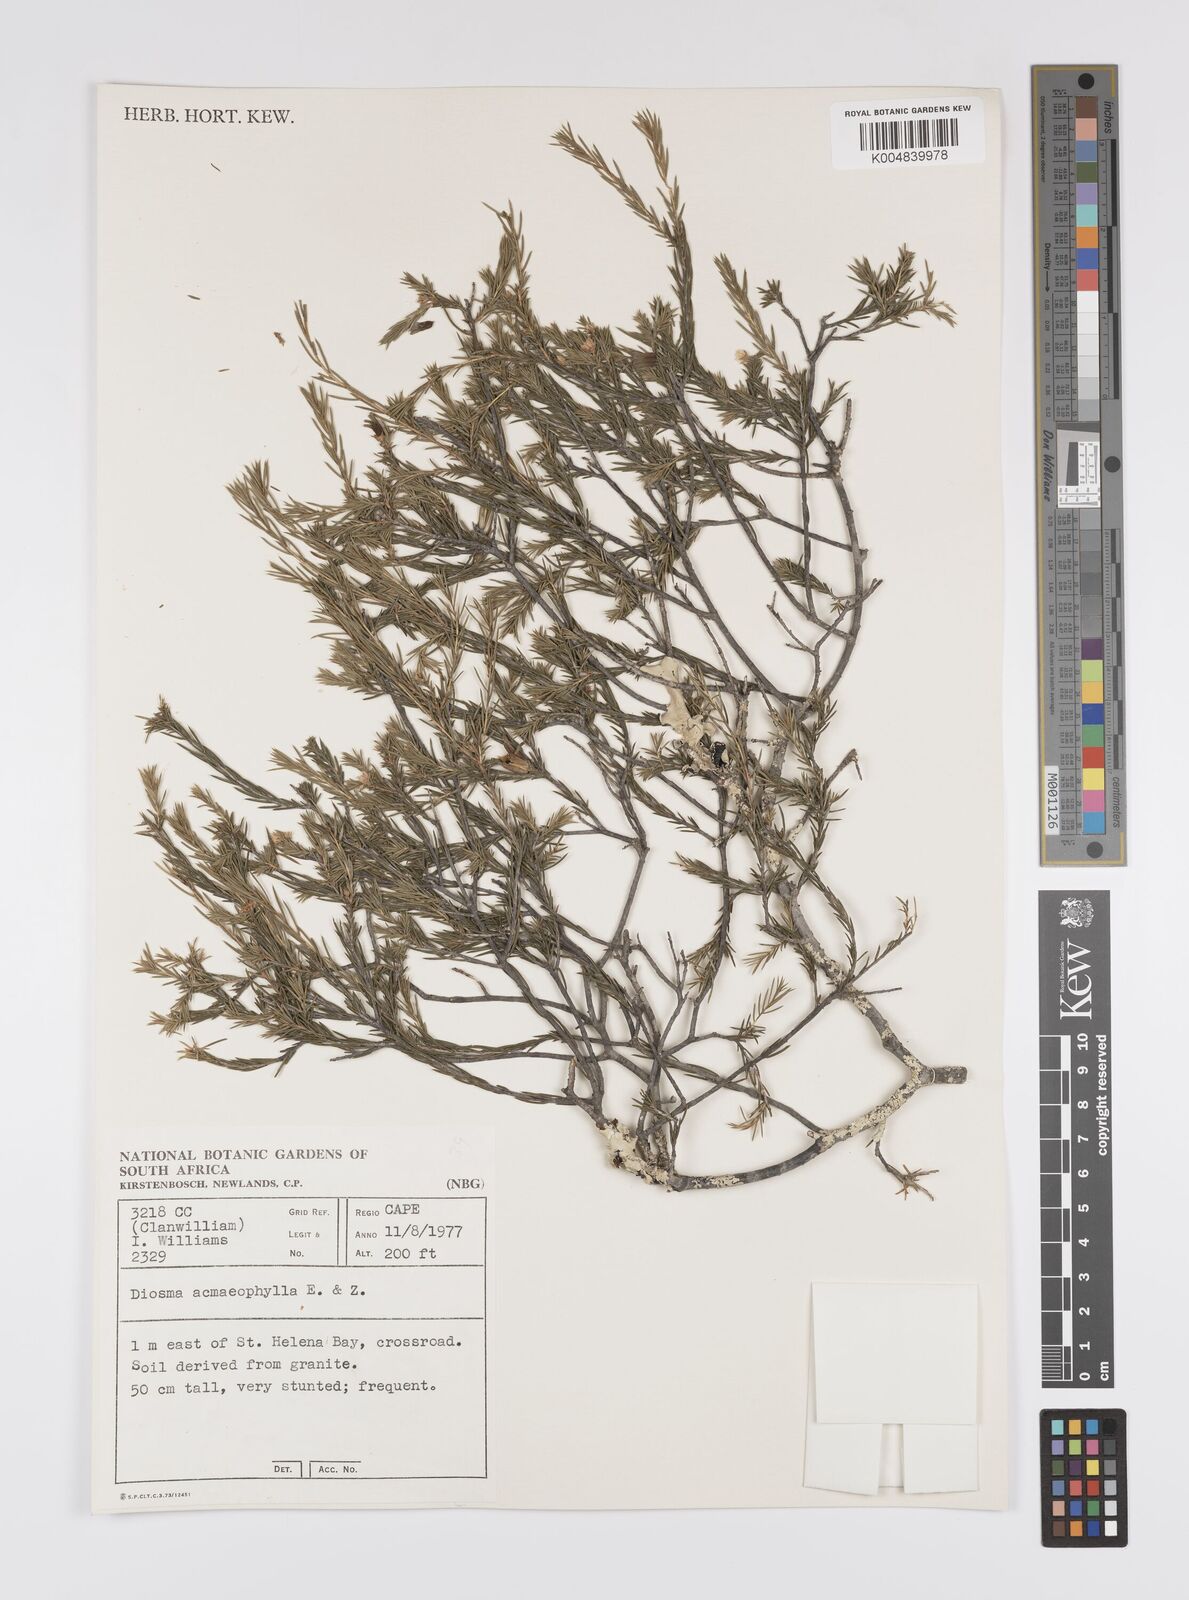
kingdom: Plantae
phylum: Tracheophyta
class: Magnoliopsida
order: Sapindales
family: Rutaceae
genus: Diosma
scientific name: Diosma acmaeophylla
